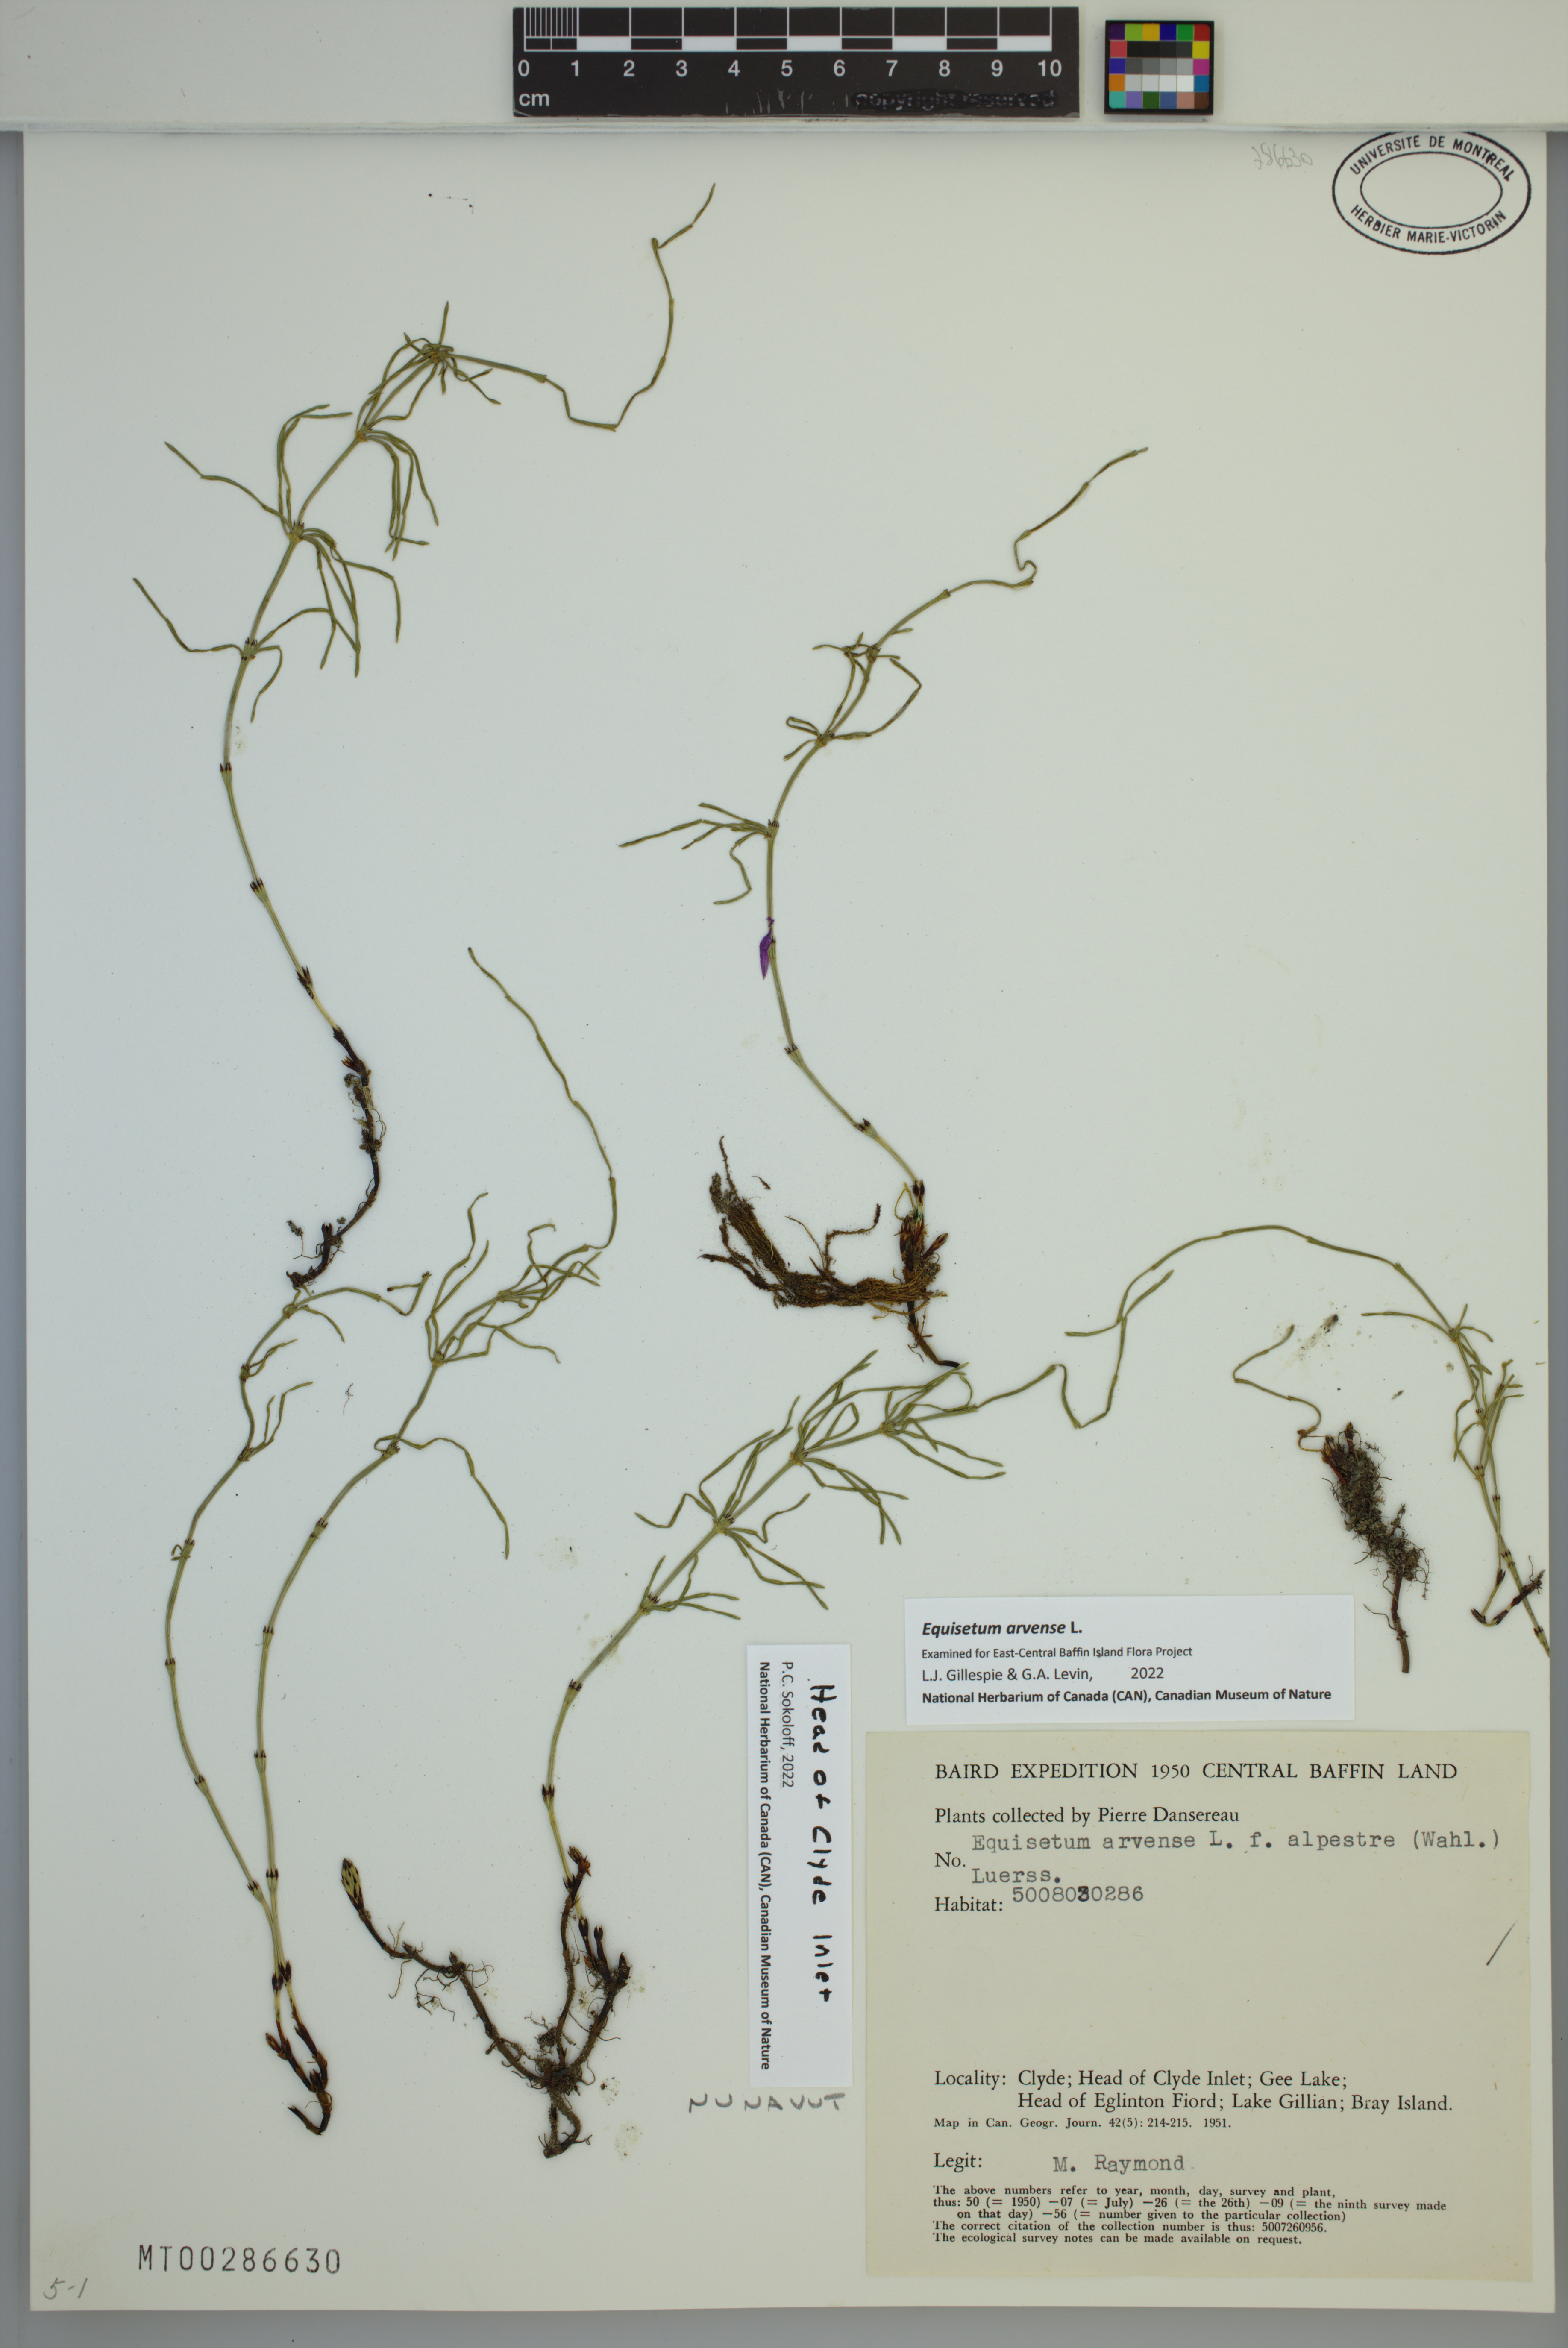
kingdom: Plantae
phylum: Tracheophyta
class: Polypodiopsida
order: Equisetales
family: Equisetaceae
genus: Equisetum
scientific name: Equisetum arvense
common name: Field horsetail
